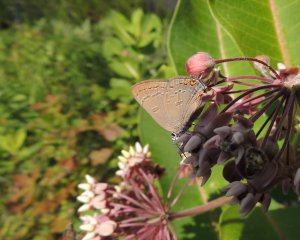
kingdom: Animalia
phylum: Arthropoda
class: Insecta
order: Lepidoptera
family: Lycaenidae
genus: Satyrium
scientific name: Satyrium edwardsii
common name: Edwards' Hairstreak
